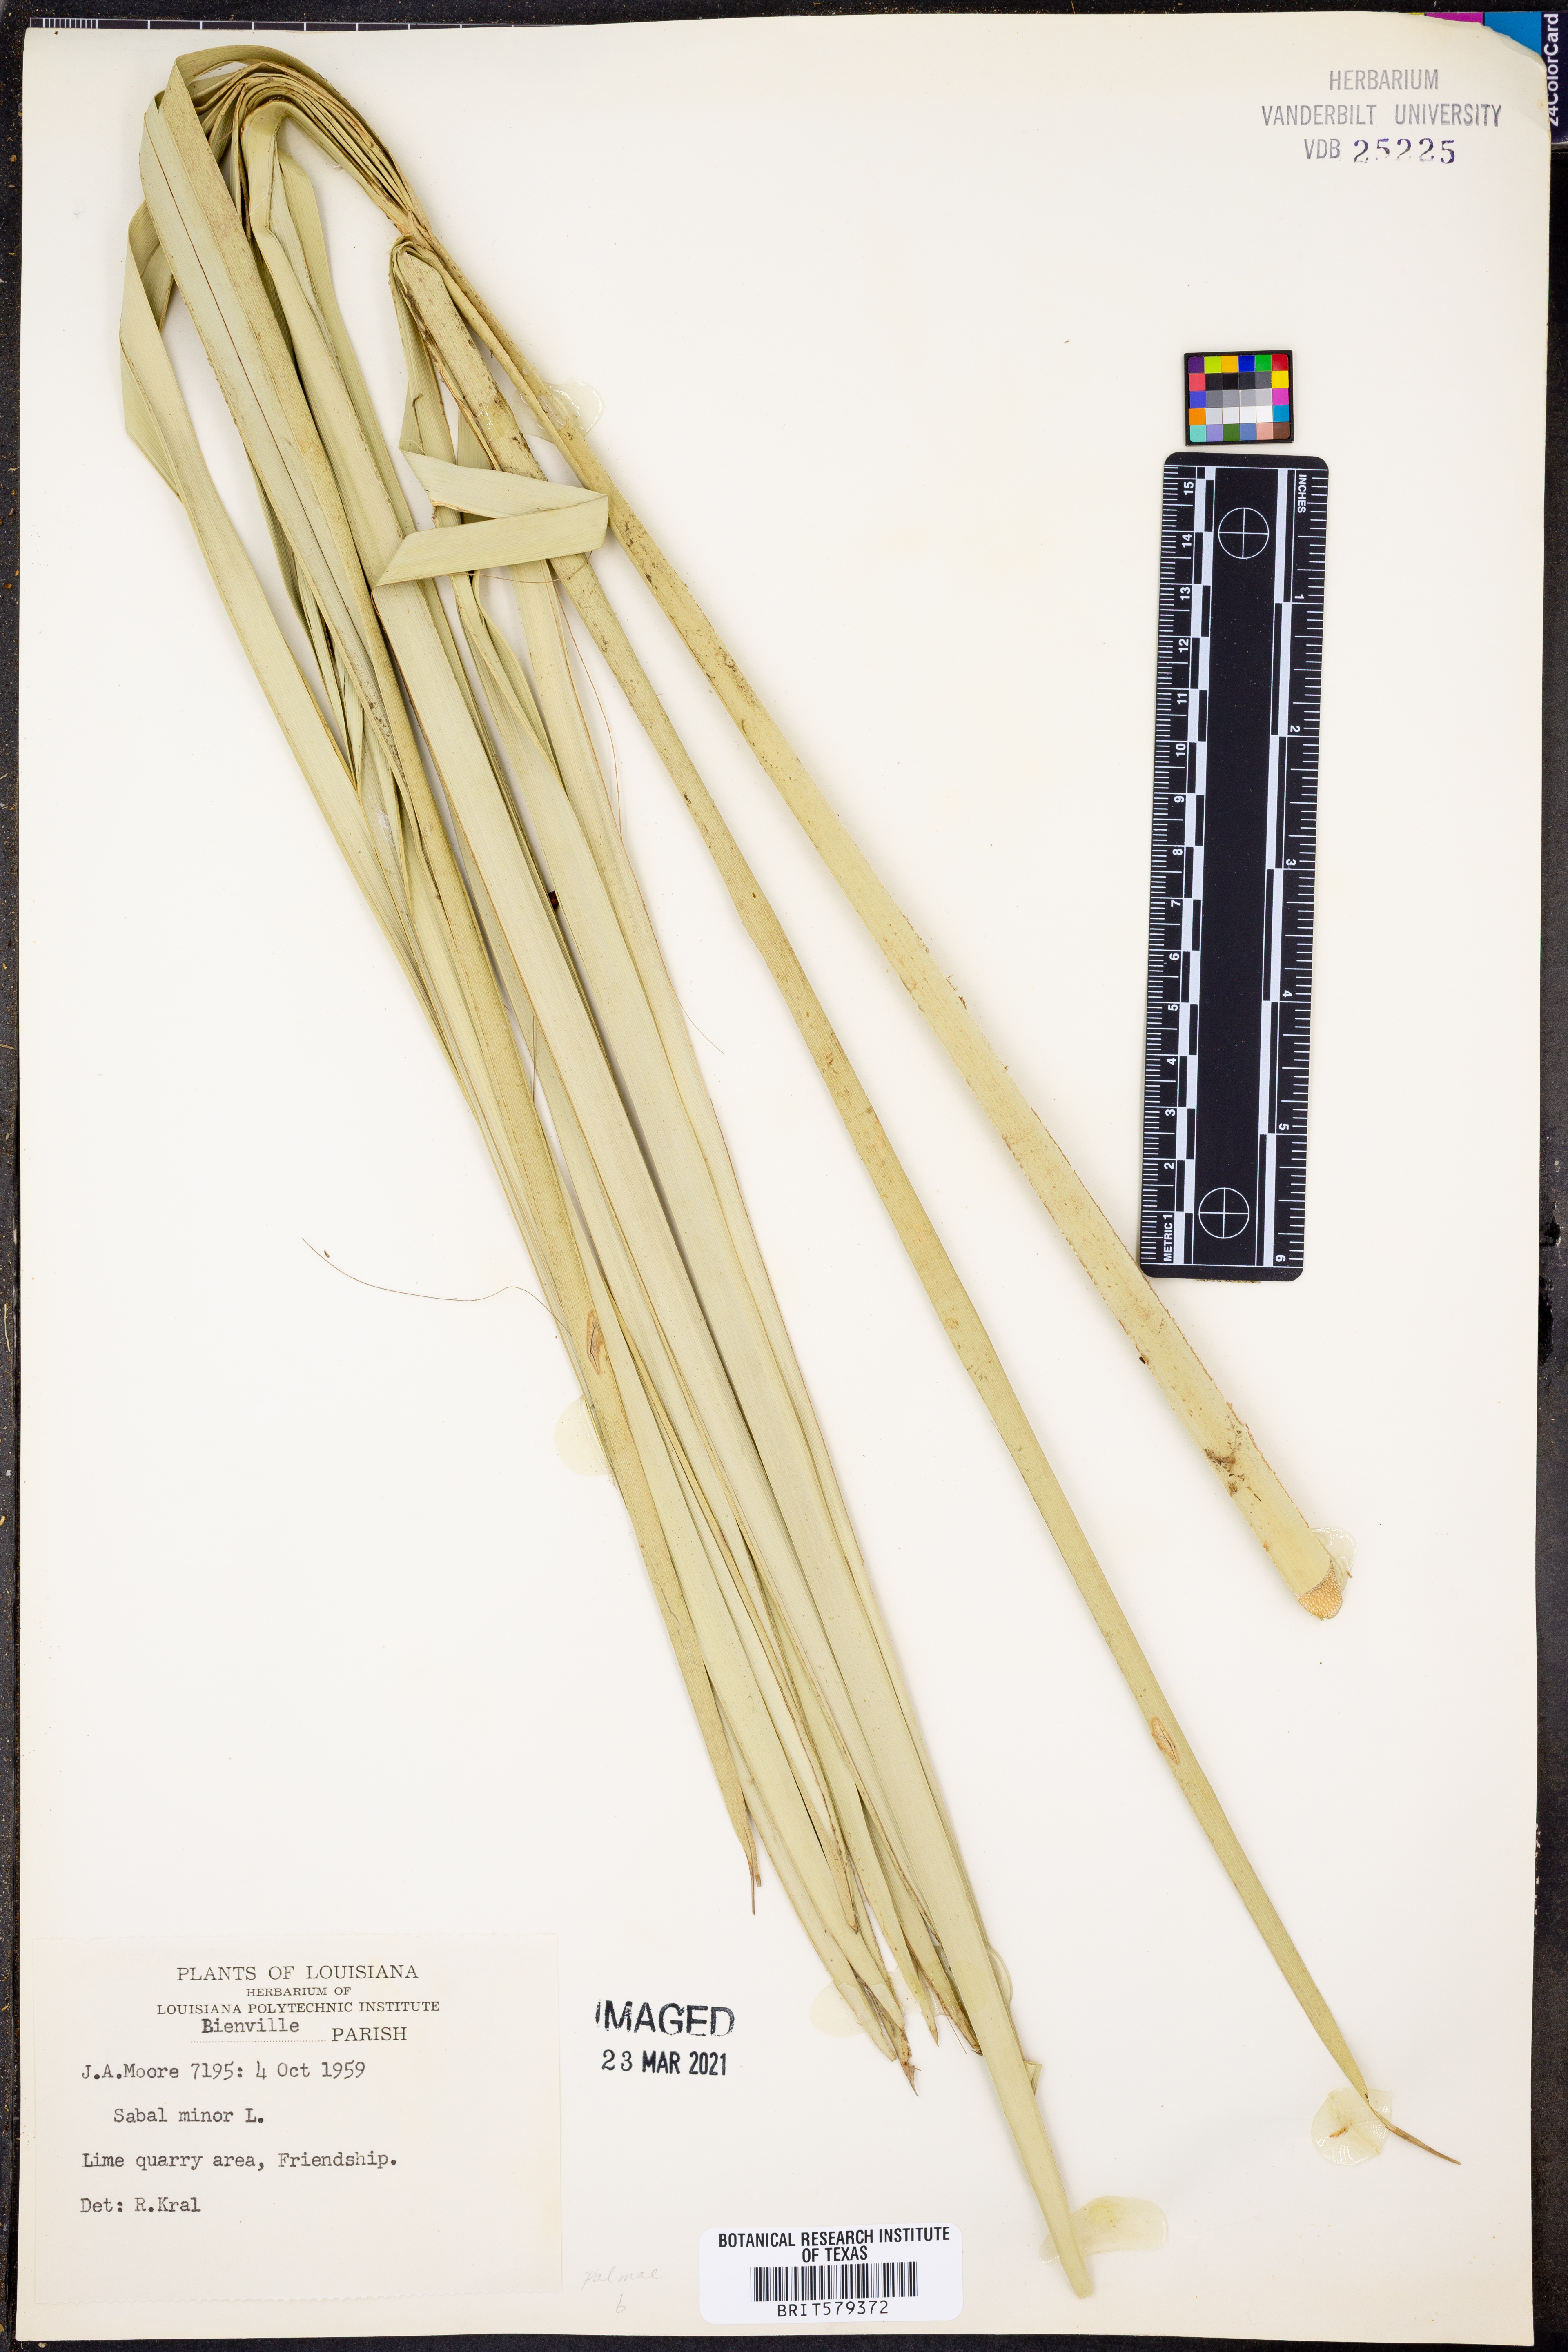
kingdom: Plantae
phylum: Tracheophyta
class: Liliopsida
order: Arecales
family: Arecaceae
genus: Sabal
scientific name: Sabal minor
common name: Dwarf palmetto
